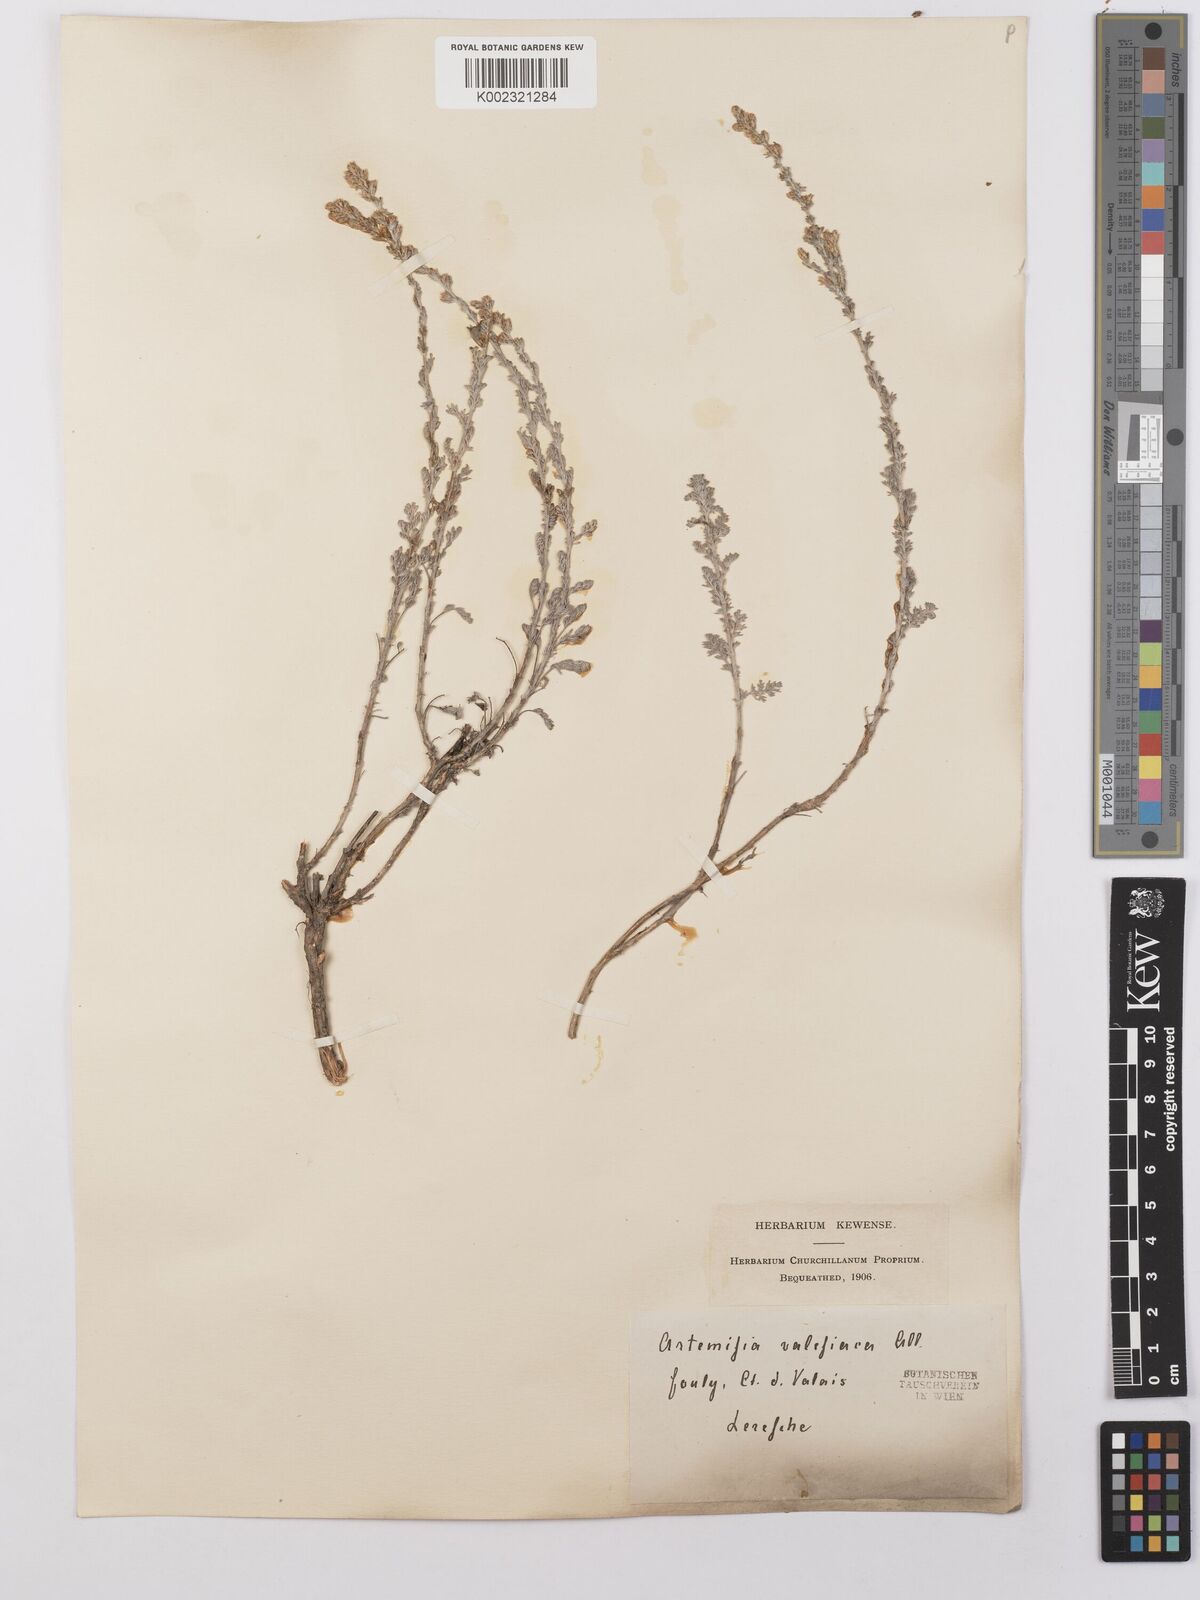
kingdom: Plantae
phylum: Tracheophyta
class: Magnoliopsida
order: Asterales
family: Asteraceae
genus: Artemisia
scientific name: Artemisia vallesiaca
